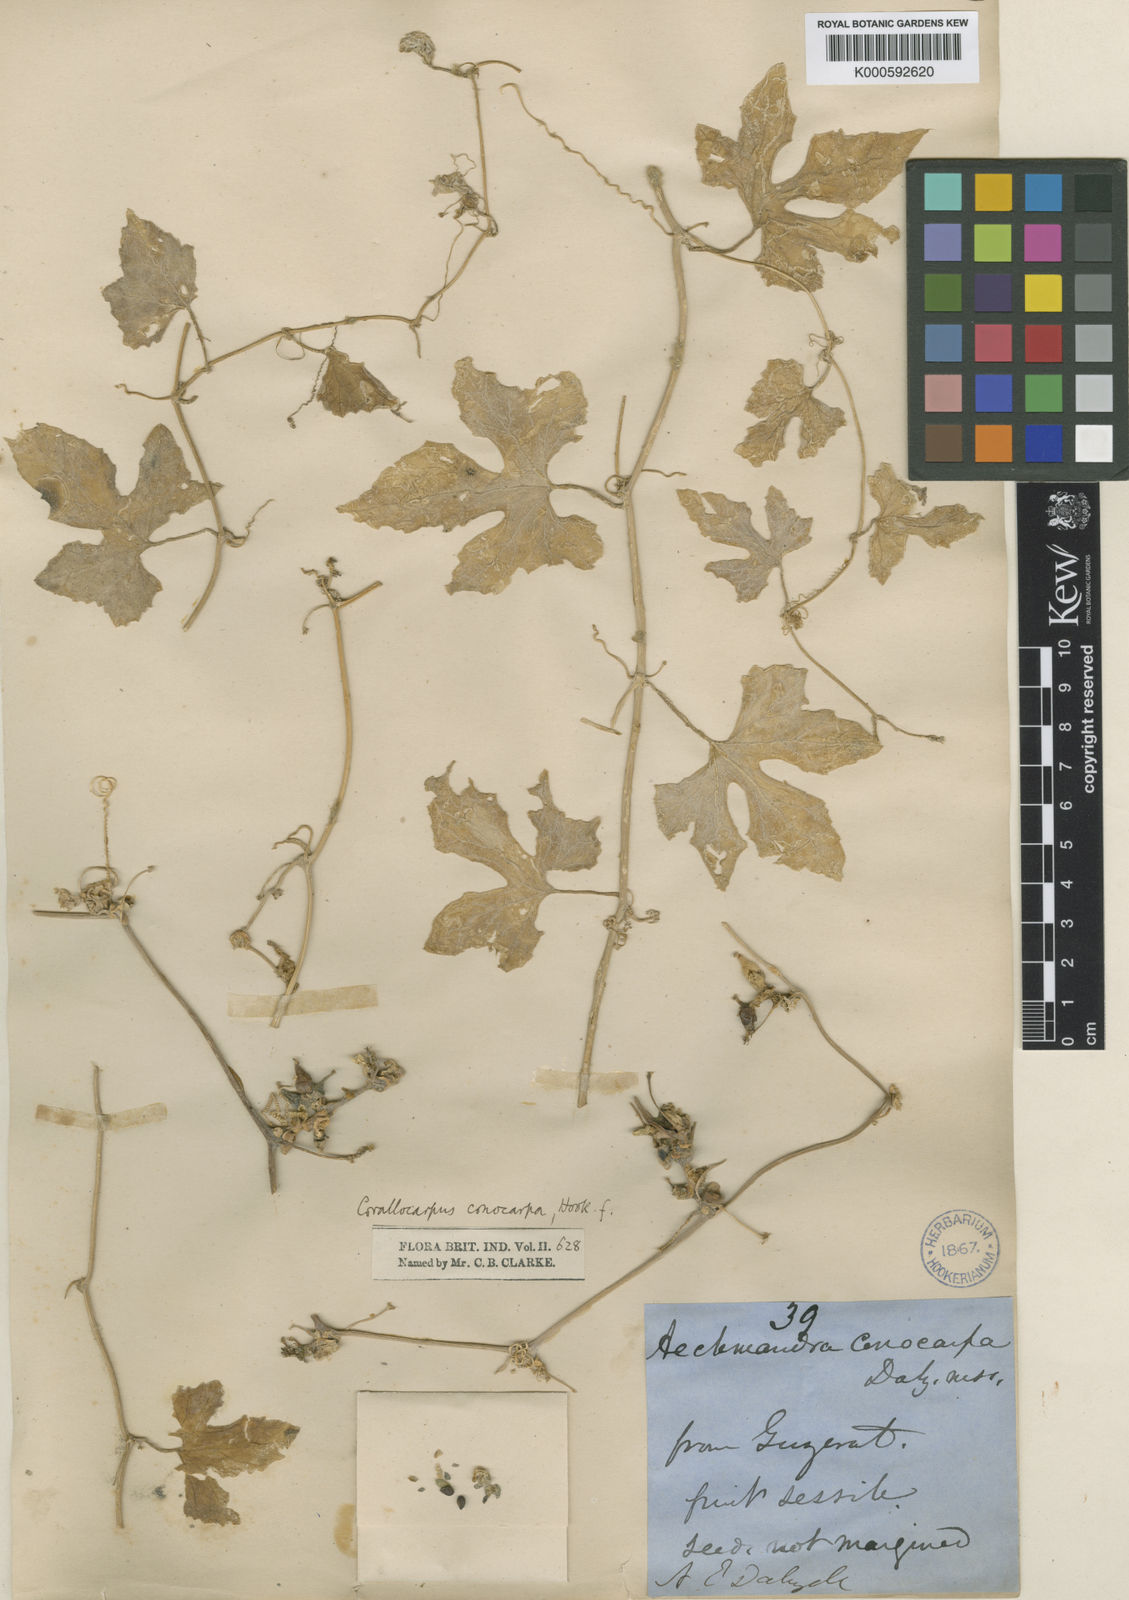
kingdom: Plantae
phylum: Tracheophyta
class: Magnoliopsida
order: Cucurbitales
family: Cucurbitaceae
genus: Corallocarpus
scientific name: Corallocarpus conocarpus
